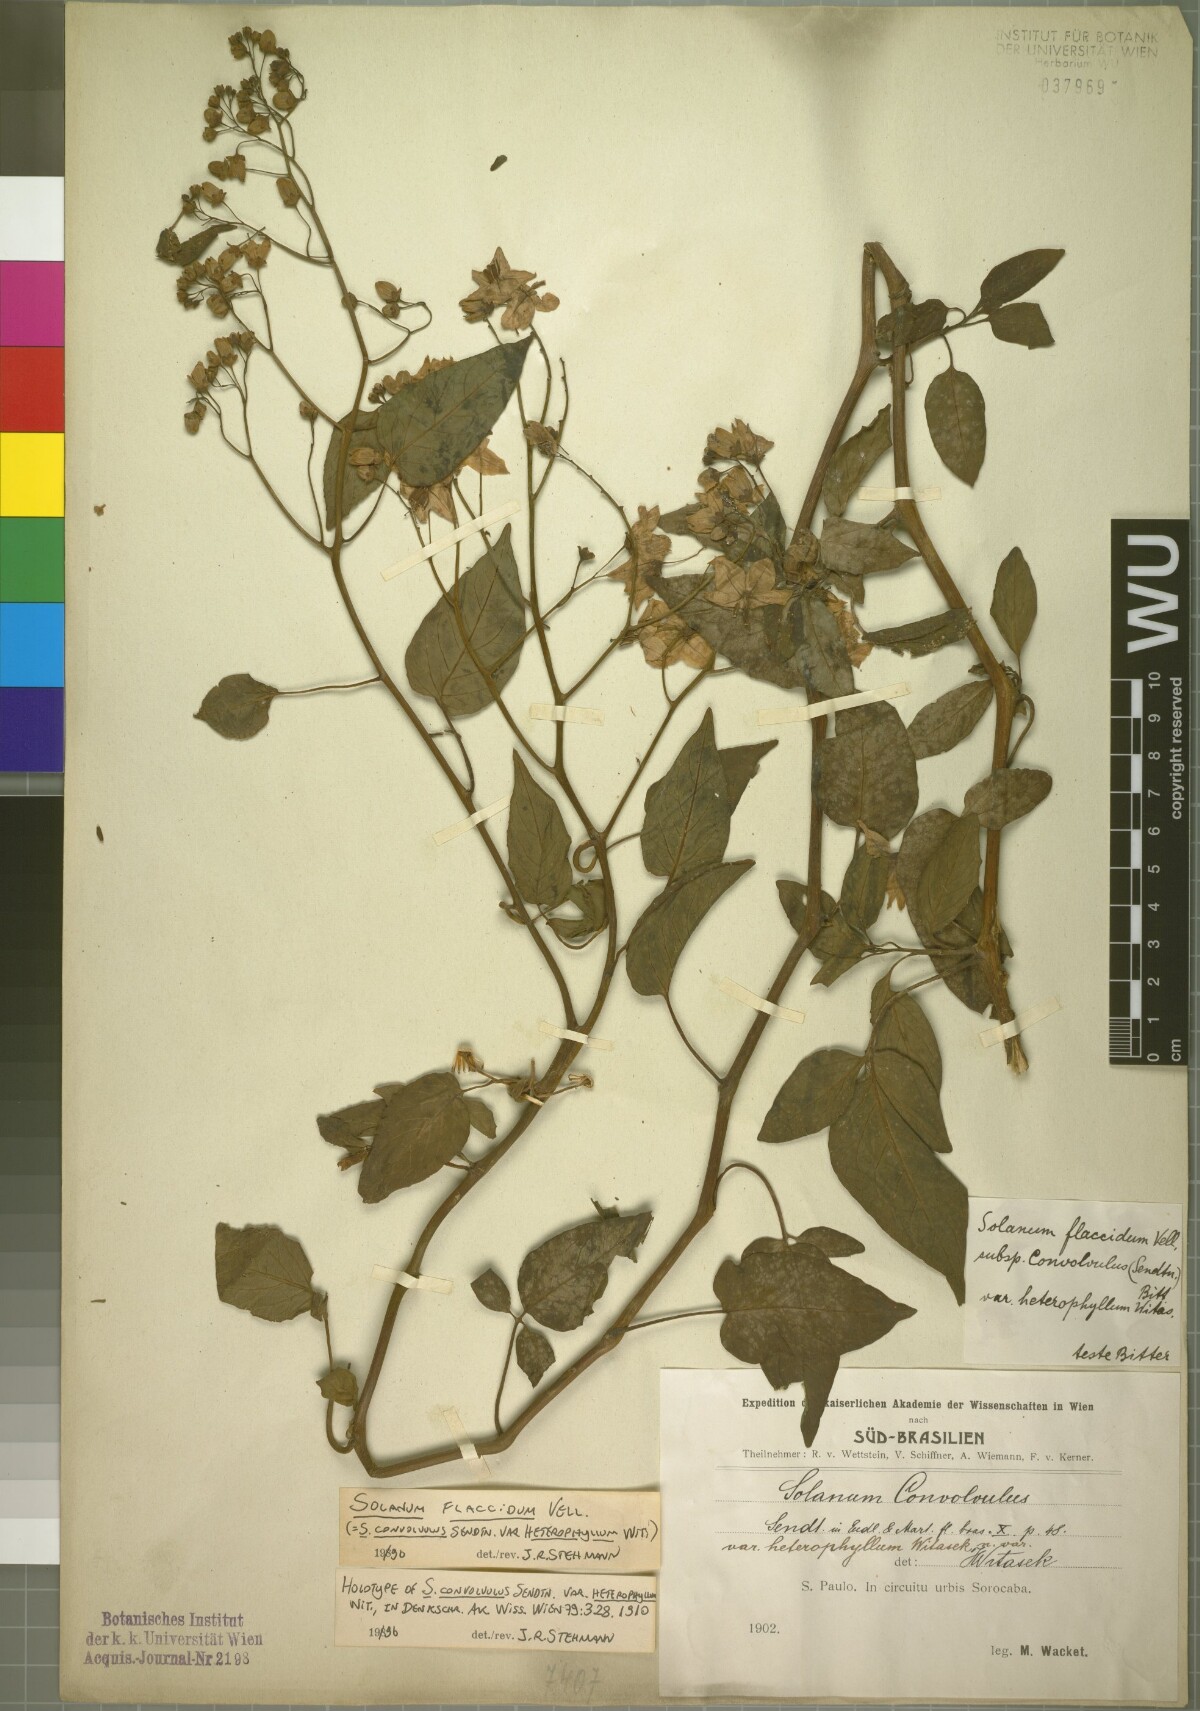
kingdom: Plantae
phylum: Tracheophyta
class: Magnoliopsida
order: Solanales
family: Solanaceae
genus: Solanum
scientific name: Solanum flaccidum
